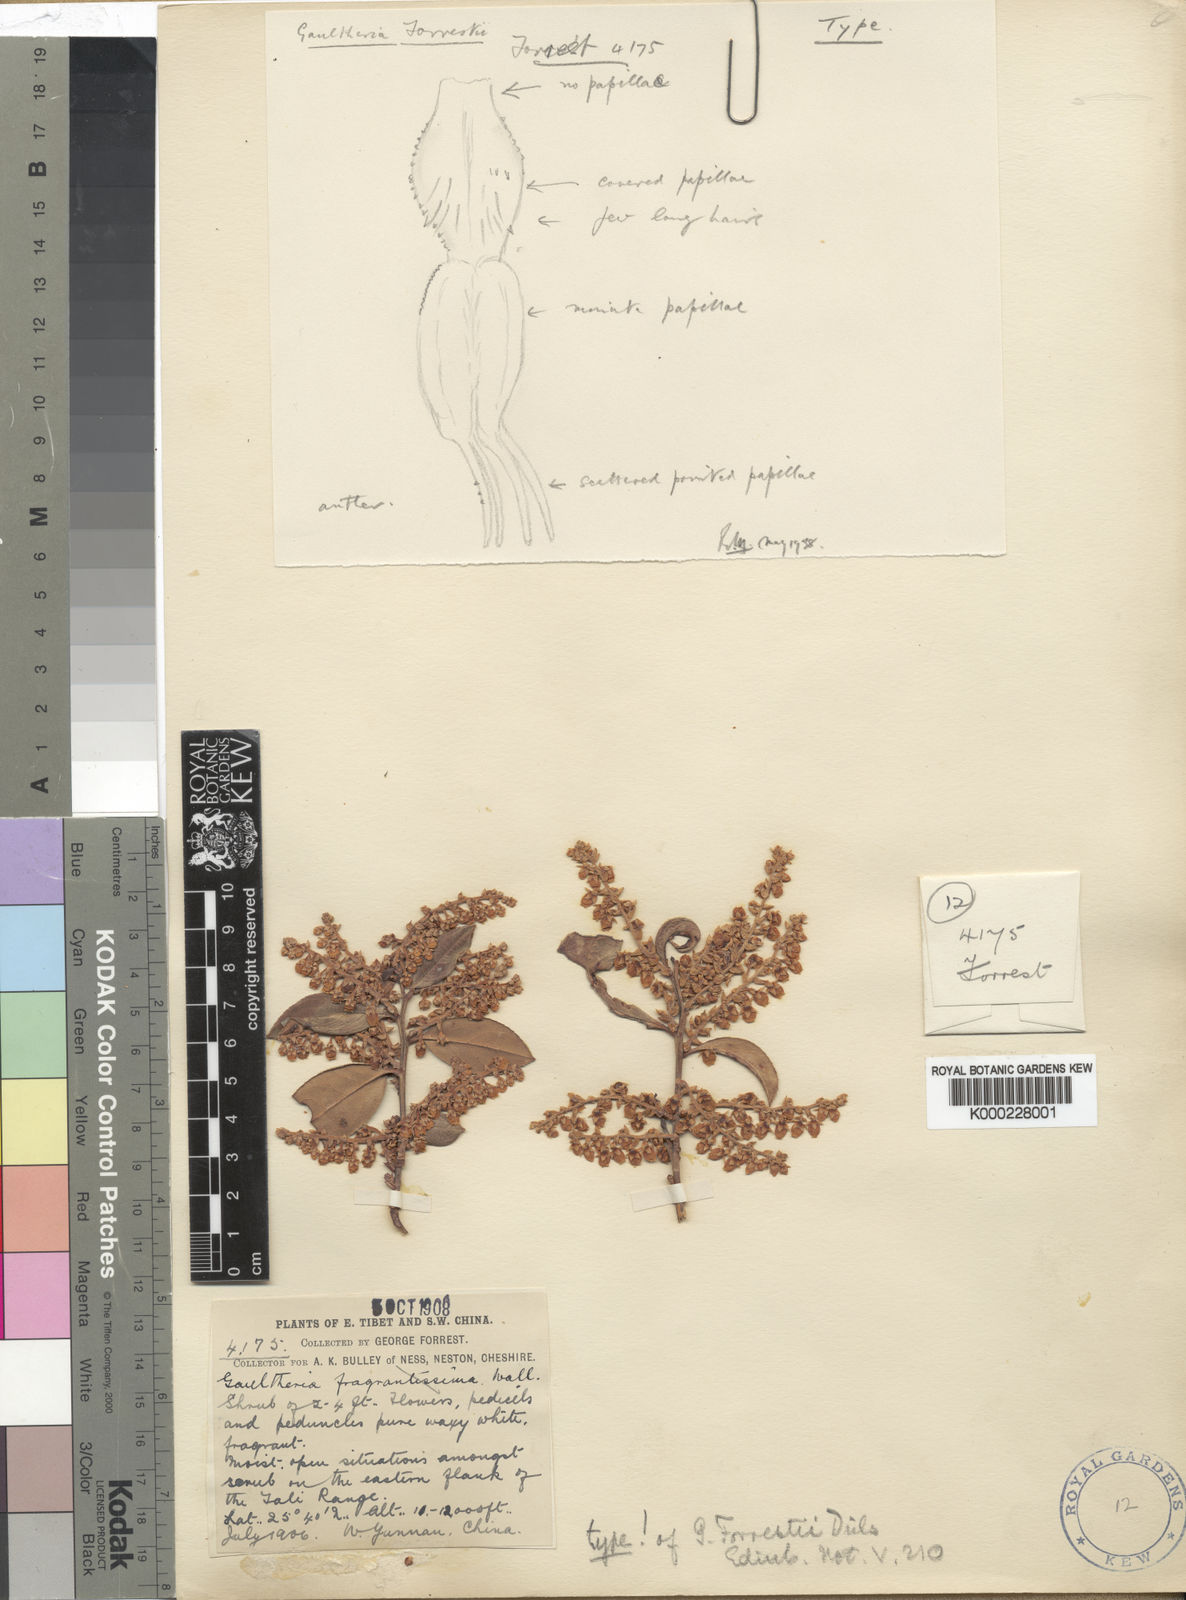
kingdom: Plantae
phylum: Tracheophyta
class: Magnoliopsida
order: Ericales
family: Ericaceae
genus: Gaultheria
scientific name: Gaultheria fragrantissima
